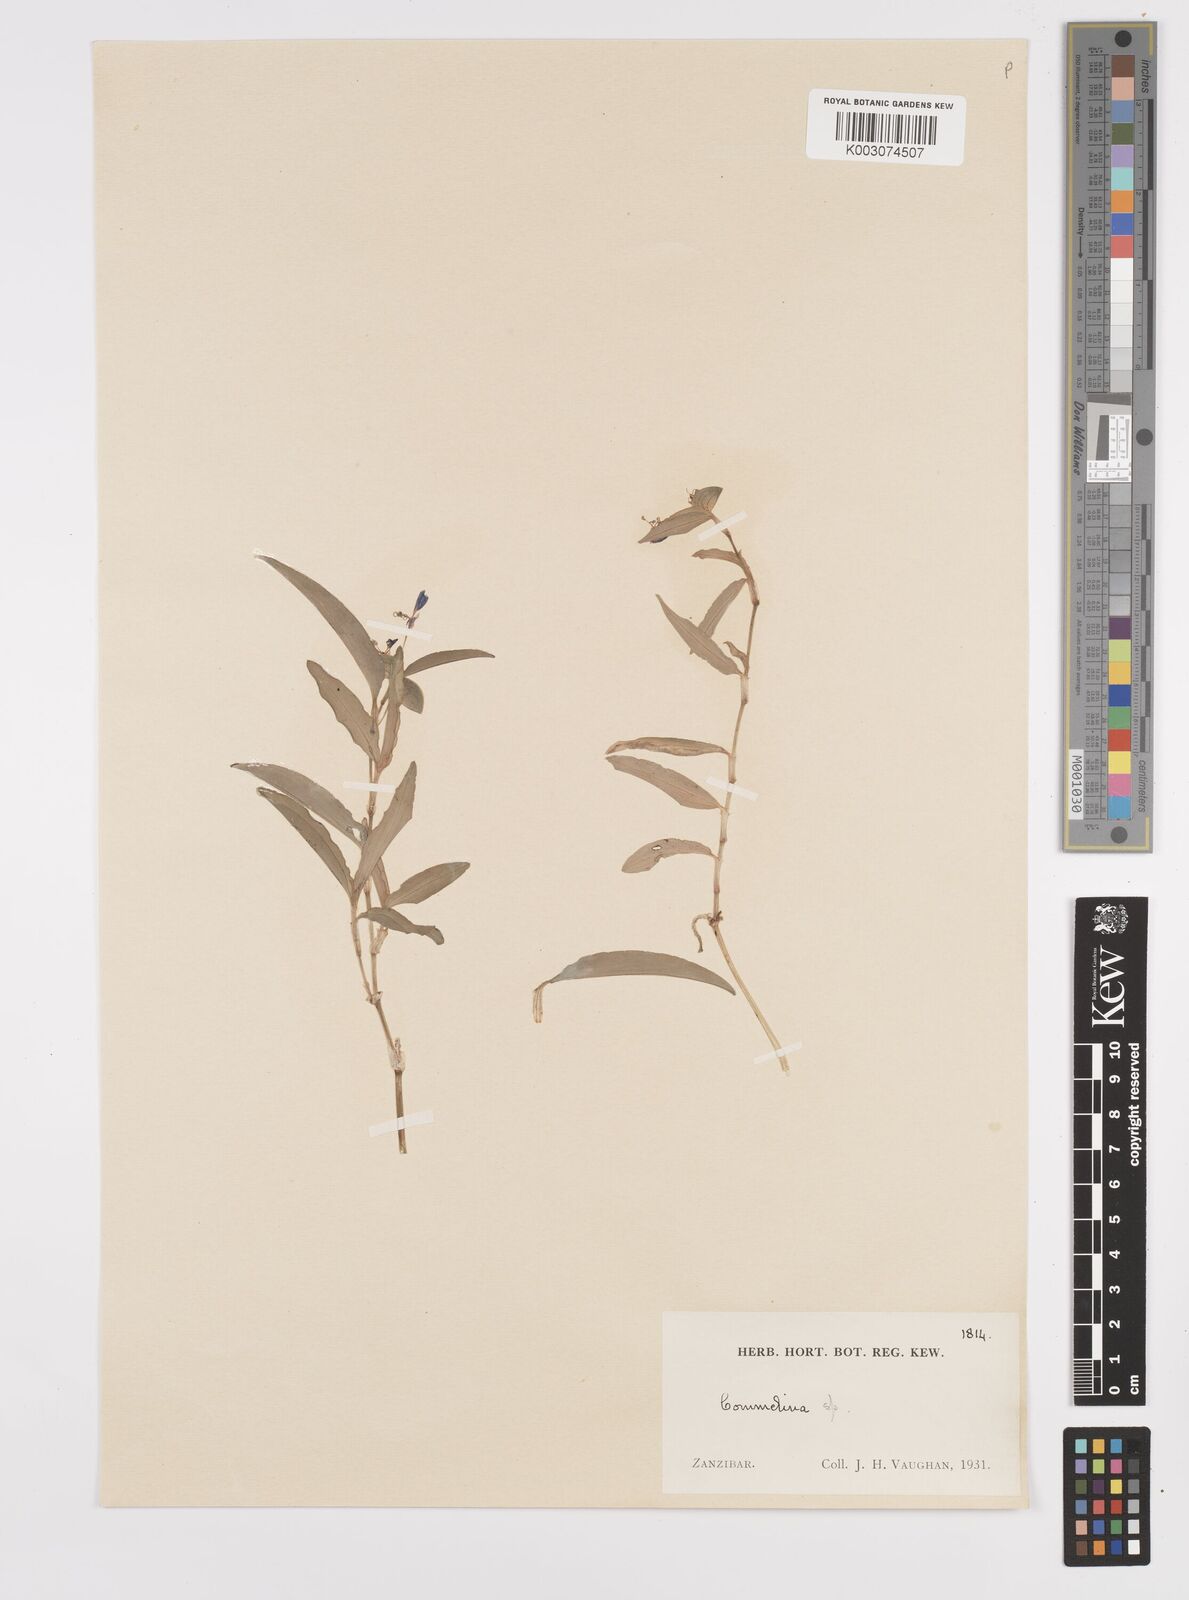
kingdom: Plantae
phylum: Tracheophyta
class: Liliopsida
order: Commelinales
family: Commelinaceae
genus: Commelina
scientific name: Commelina forskaolii
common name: Rat's ear
